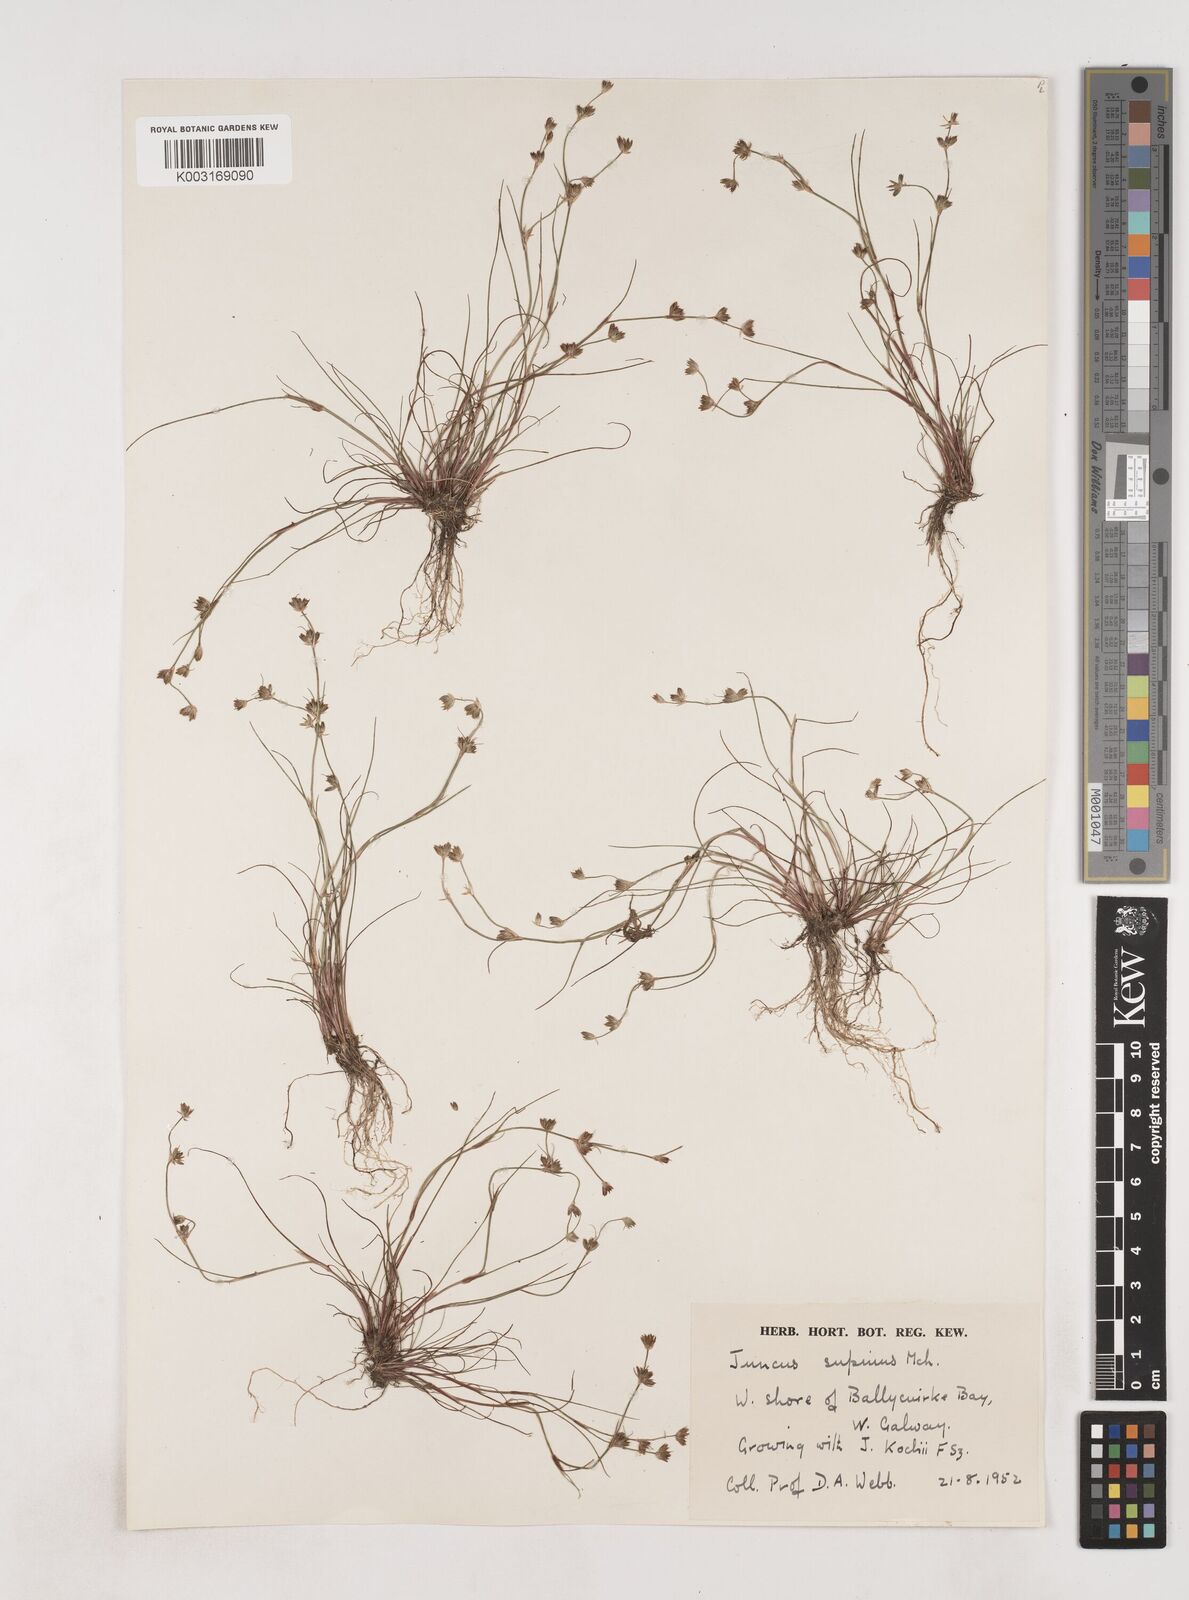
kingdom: Plantae
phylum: Tracheophyta
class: Liliopsida
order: Poales
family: Juncaceae
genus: Juncus
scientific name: Juncus bulbosus
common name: Bulbous rush
